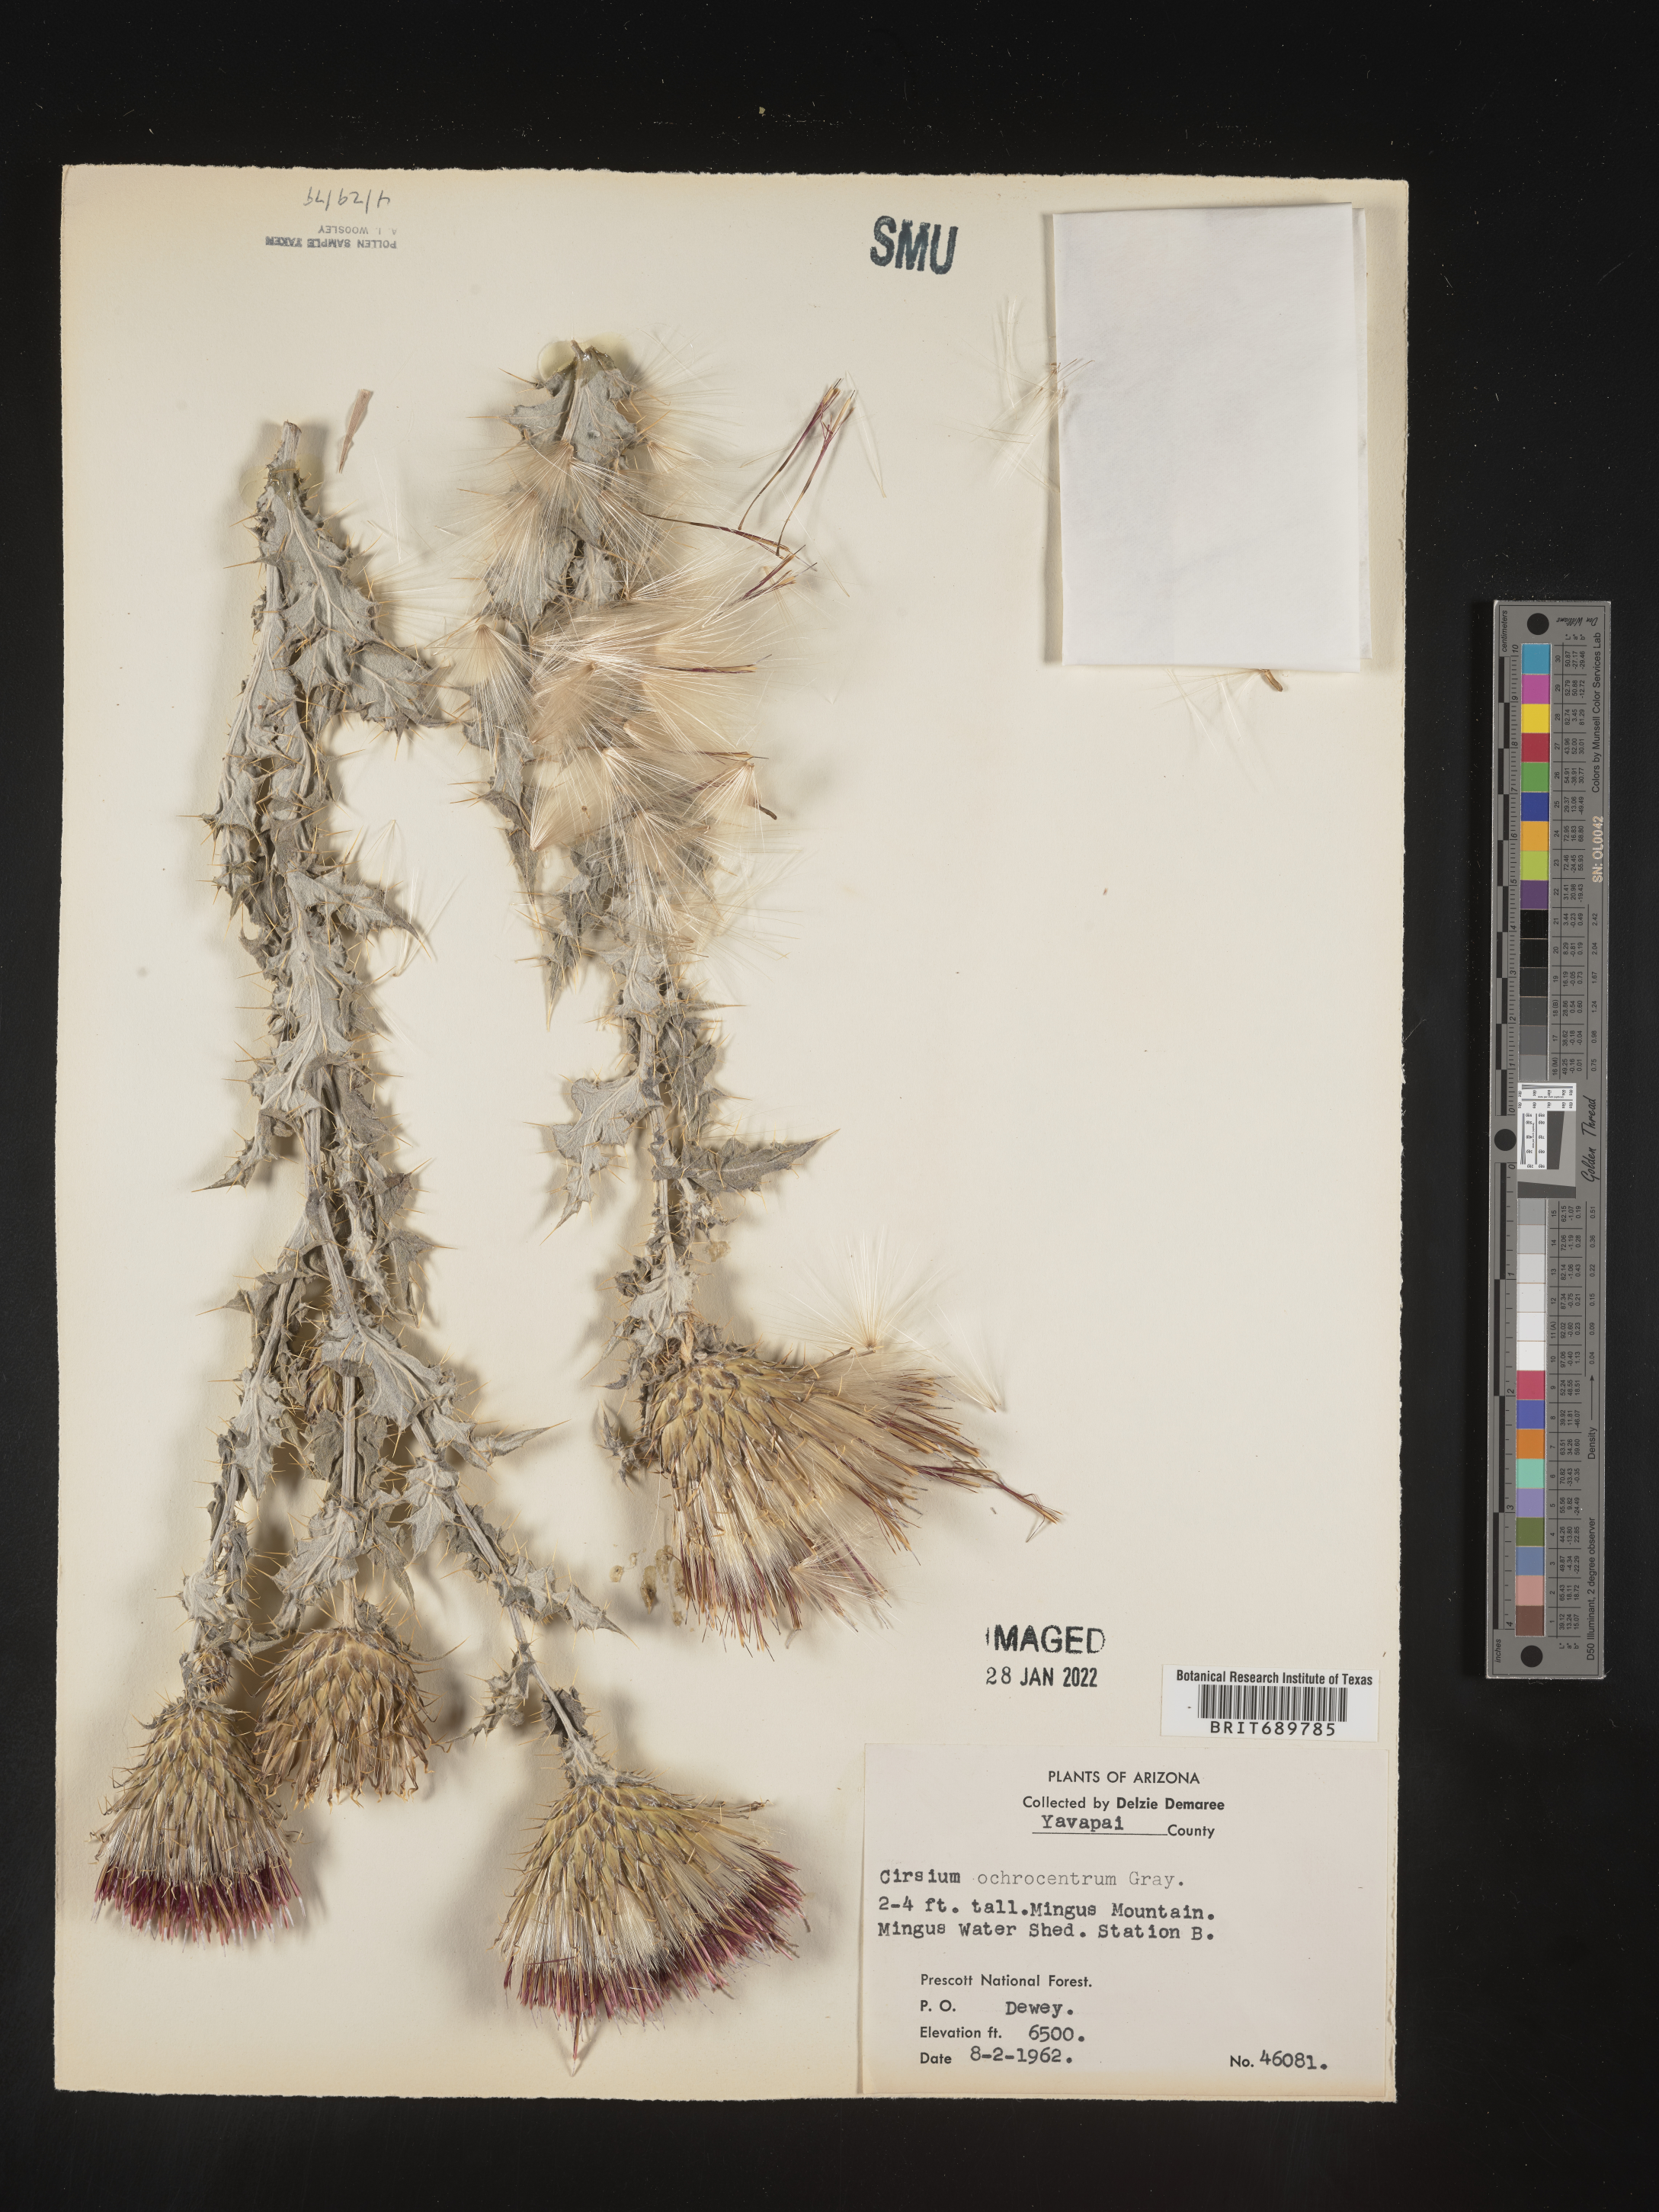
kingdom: Plantae
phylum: Tracheophyta
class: Magnoliopsida
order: Asterales
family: Asteraceae
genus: Cirsium
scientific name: Cirsium ochrocentrum
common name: Yellow-spine thistle
